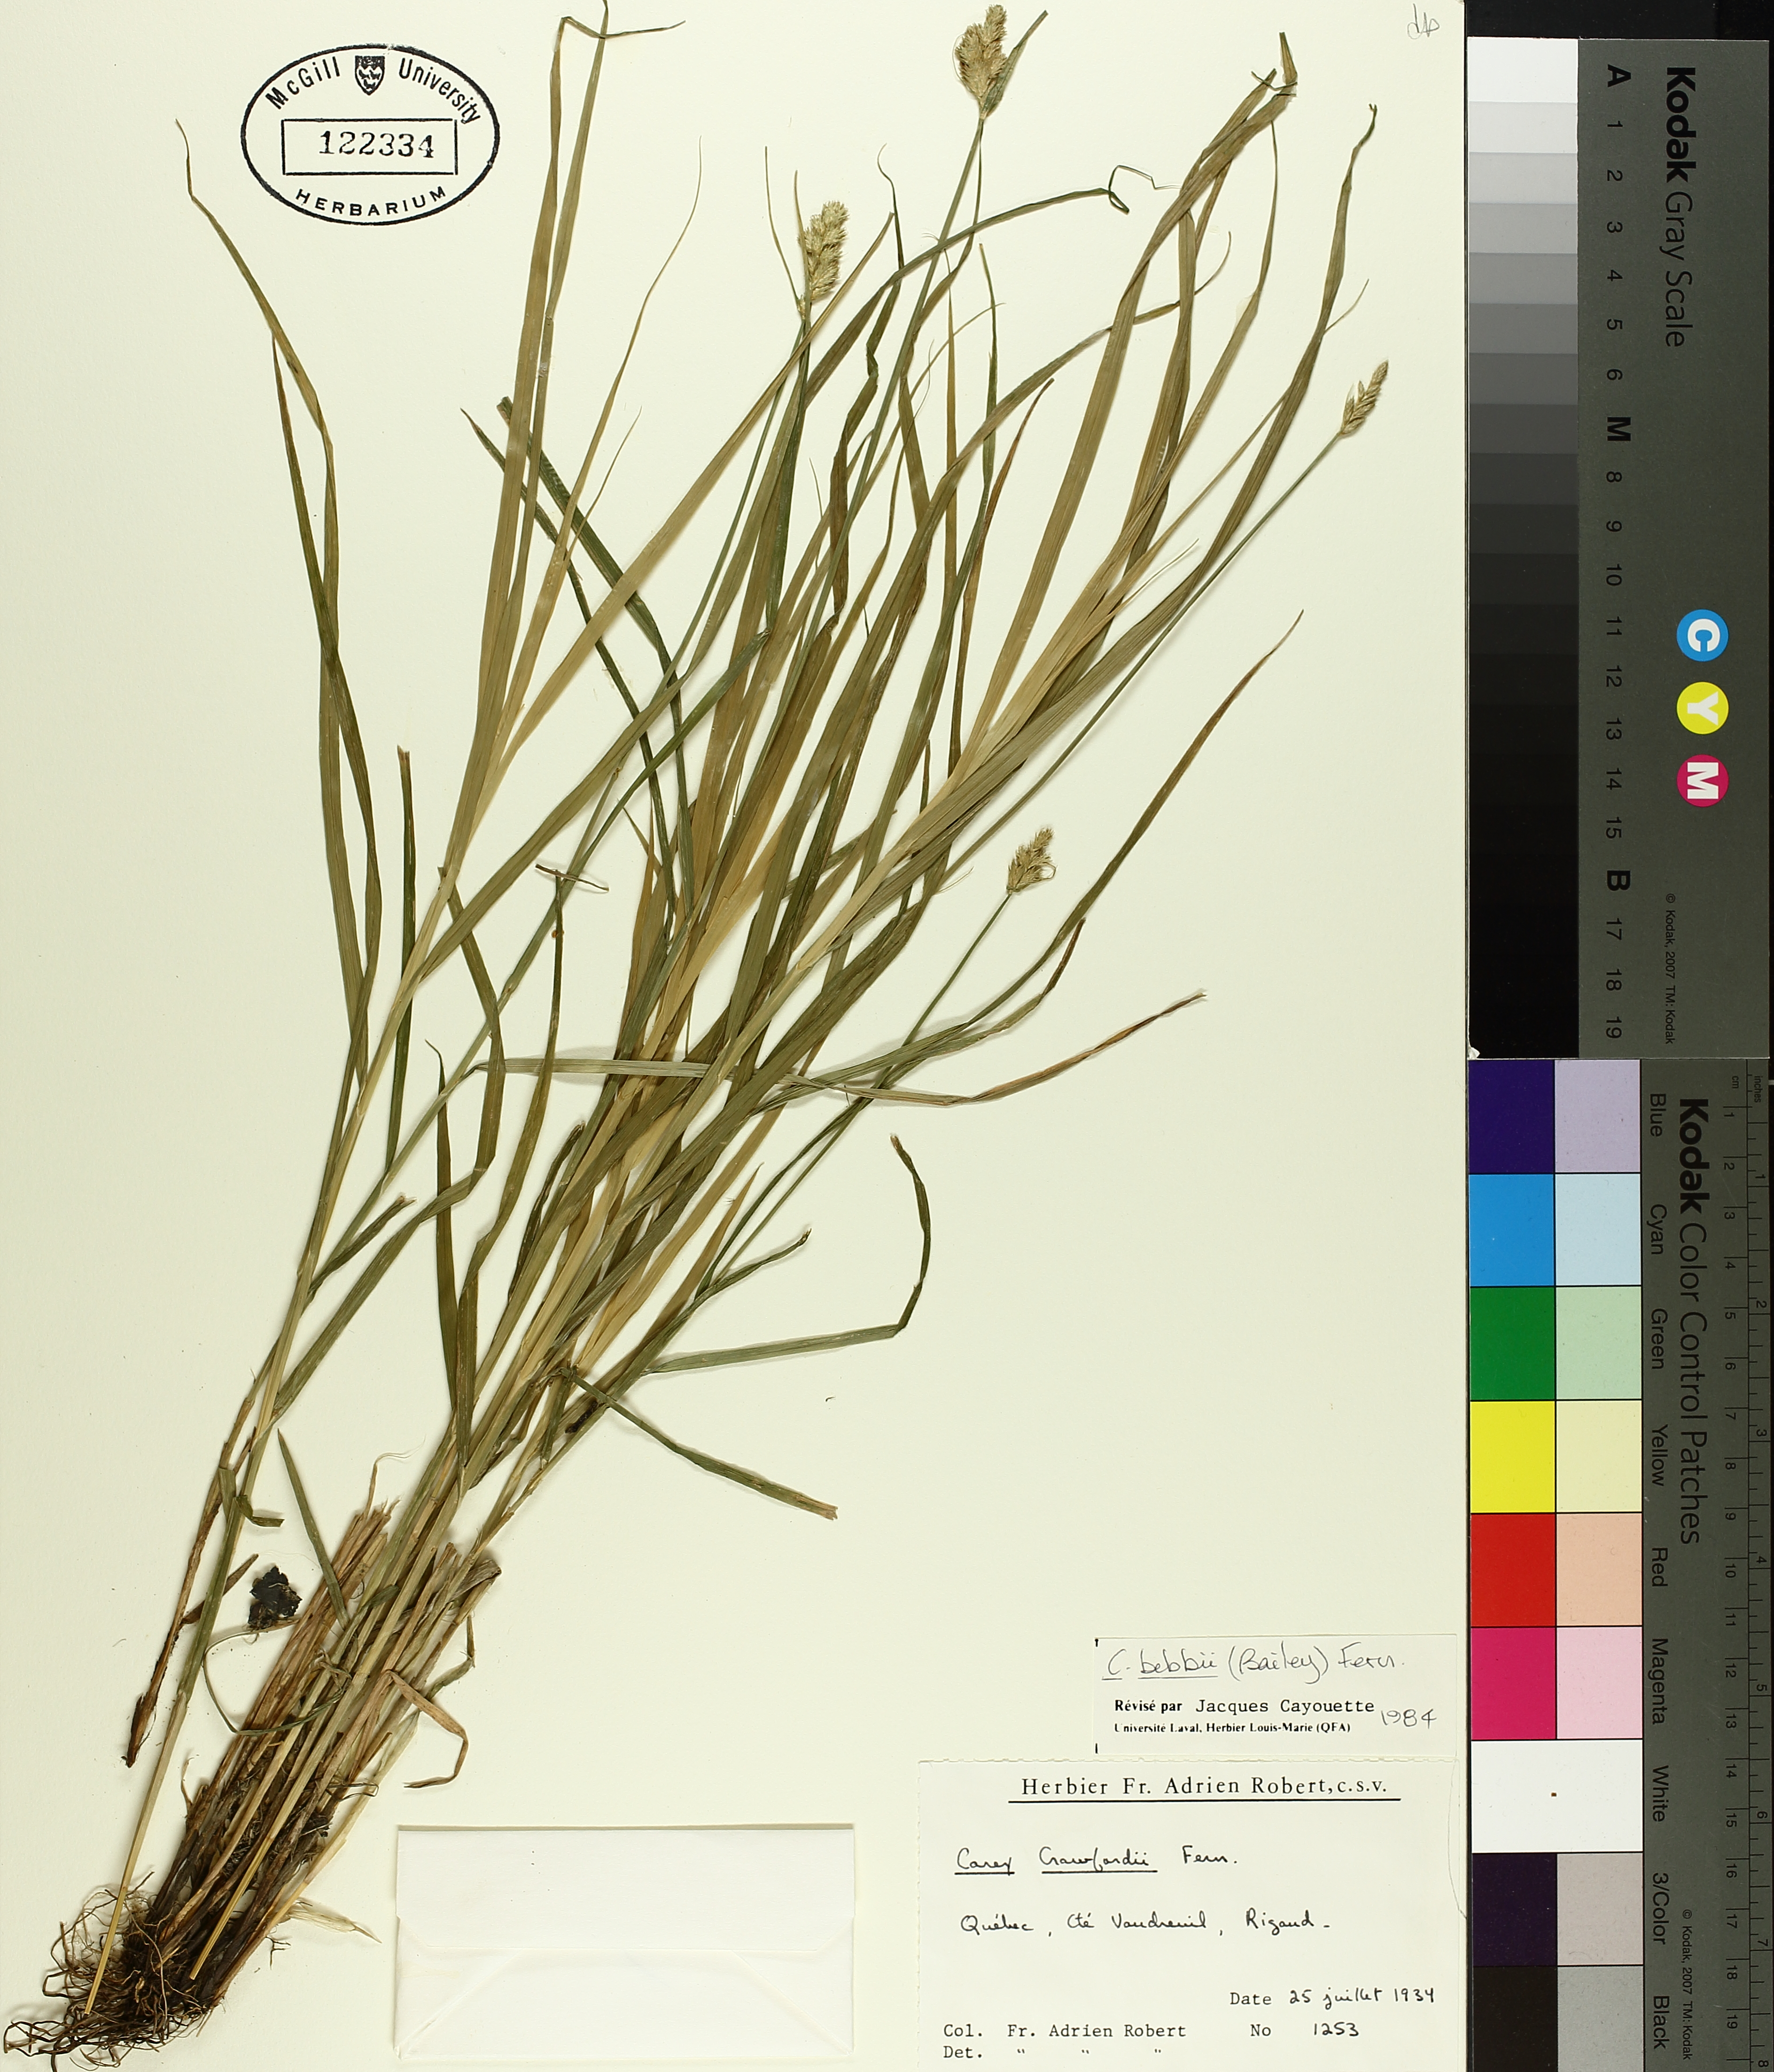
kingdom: Plantae
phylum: Tracheophyta
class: Liliopsida
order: Poales
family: Cyperaceae
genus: Carex
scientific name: Carex bebbii
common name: Bebb's sedge
